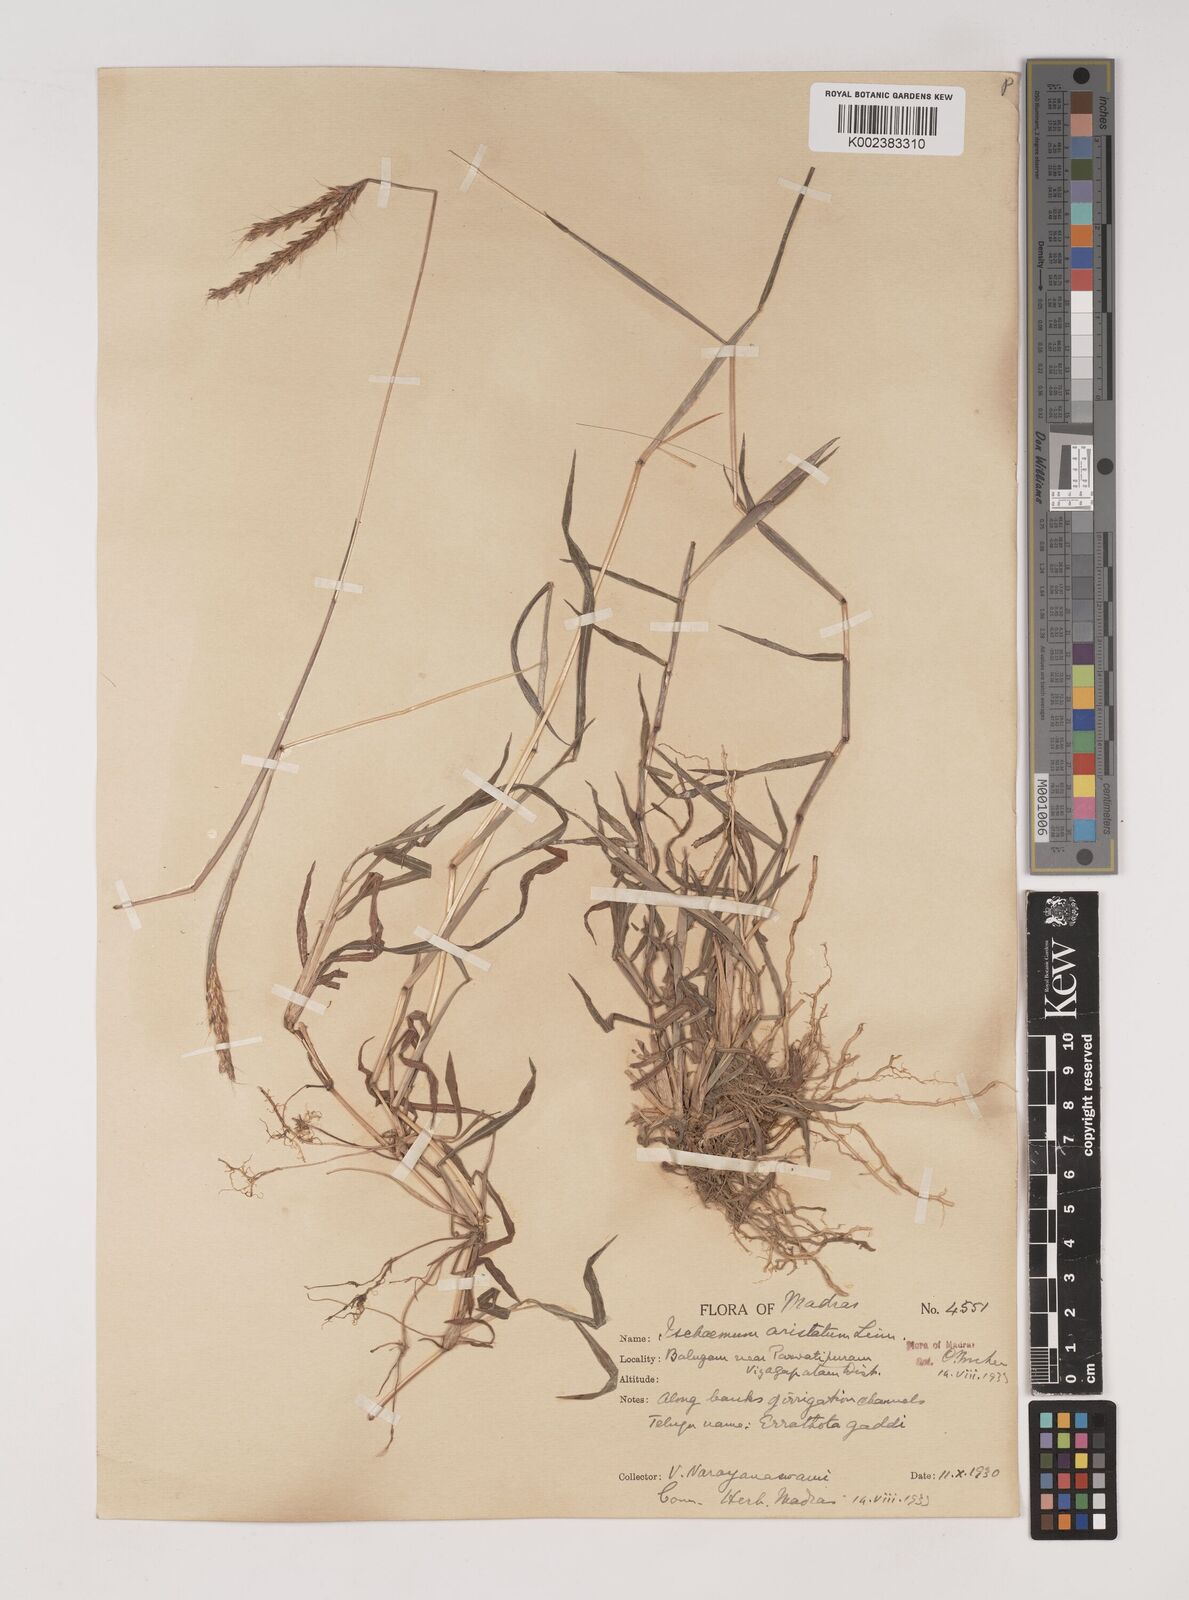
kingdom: Plantae
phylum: Tracheophyta
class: Liliopsida
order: Poales
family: Poaceae
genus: Polytrias
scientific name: Polytrias indica
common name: Indian murainagrass
